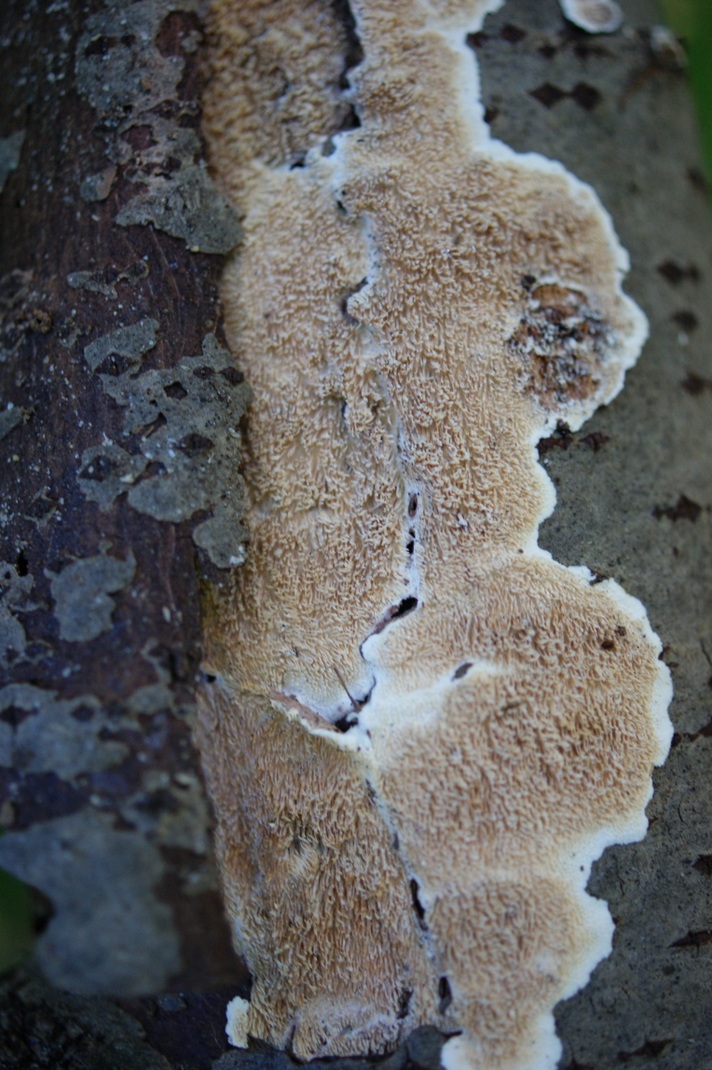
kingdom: Fungi
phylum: Basidiomycota
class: Agaricomycetes
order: Polyporales
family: Steccherinaceae
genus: Steccherinum
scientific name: Steccherinum bourdotii
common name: hat-skønpig
